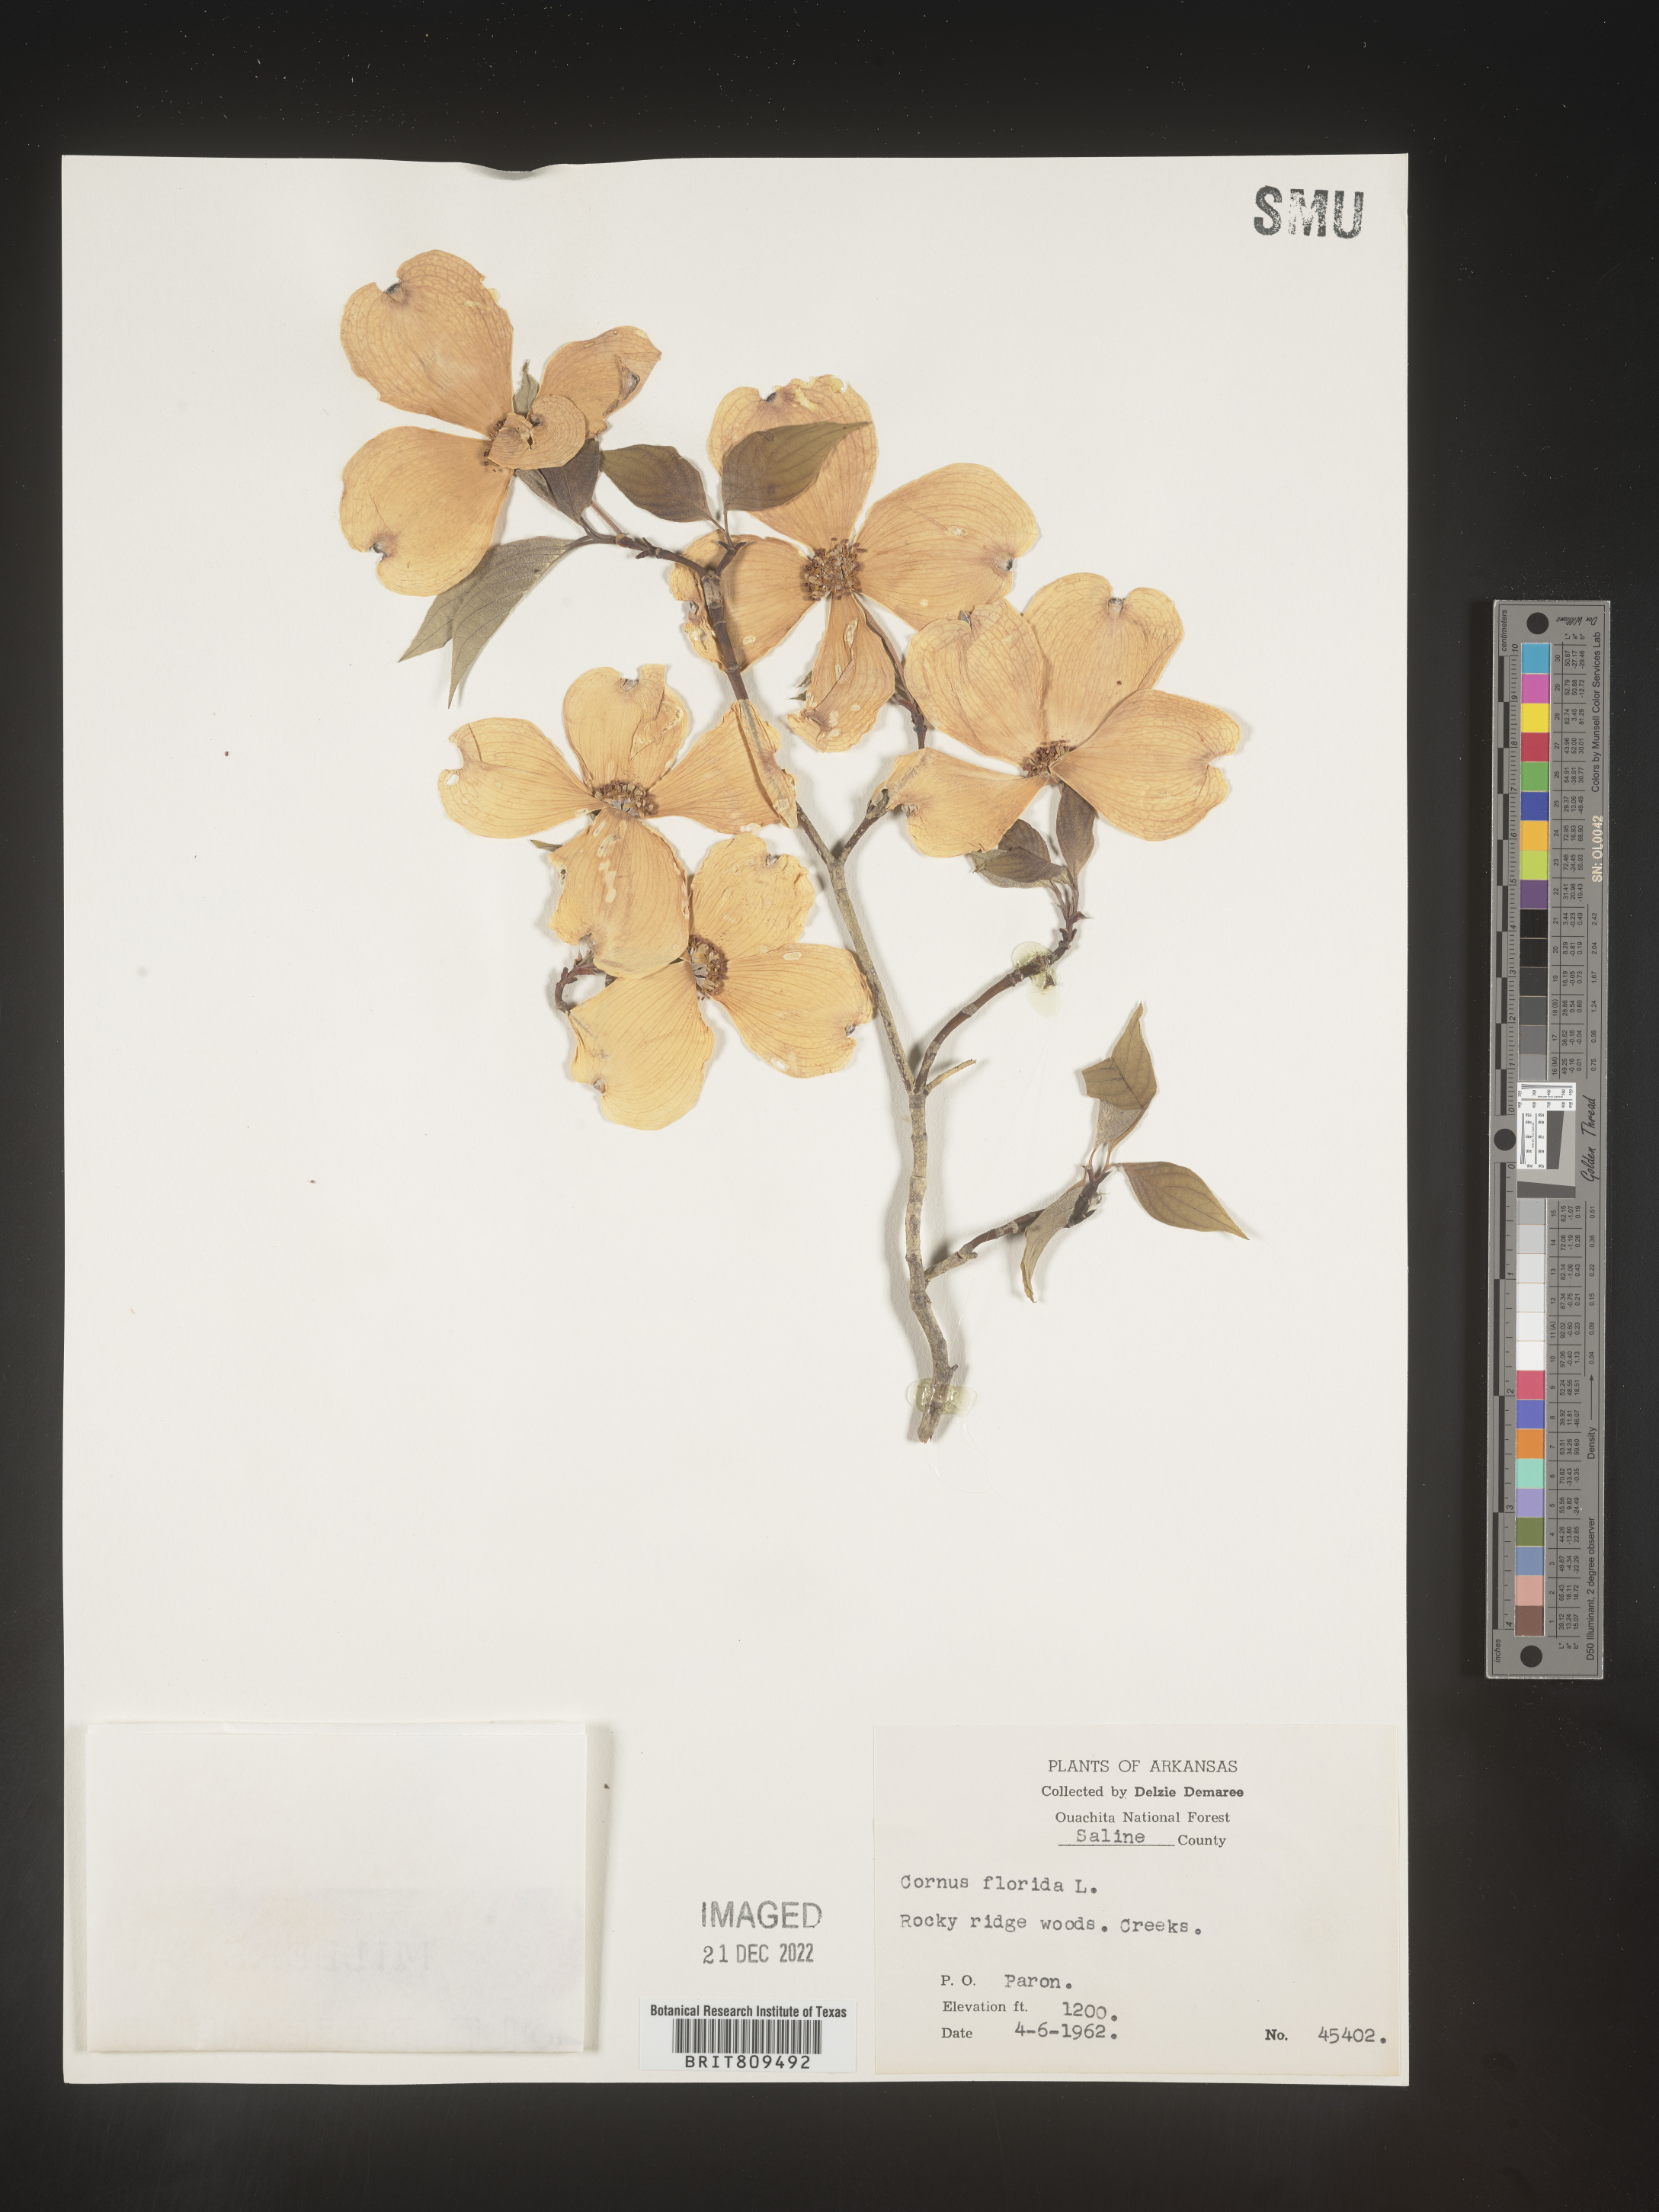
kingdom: Plantae
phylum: Tracheophyta
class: Magnoliopsida
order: Cornales
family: Cornaceae
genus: Cornus
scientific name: Cornus florida
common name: Flowering dogwood
